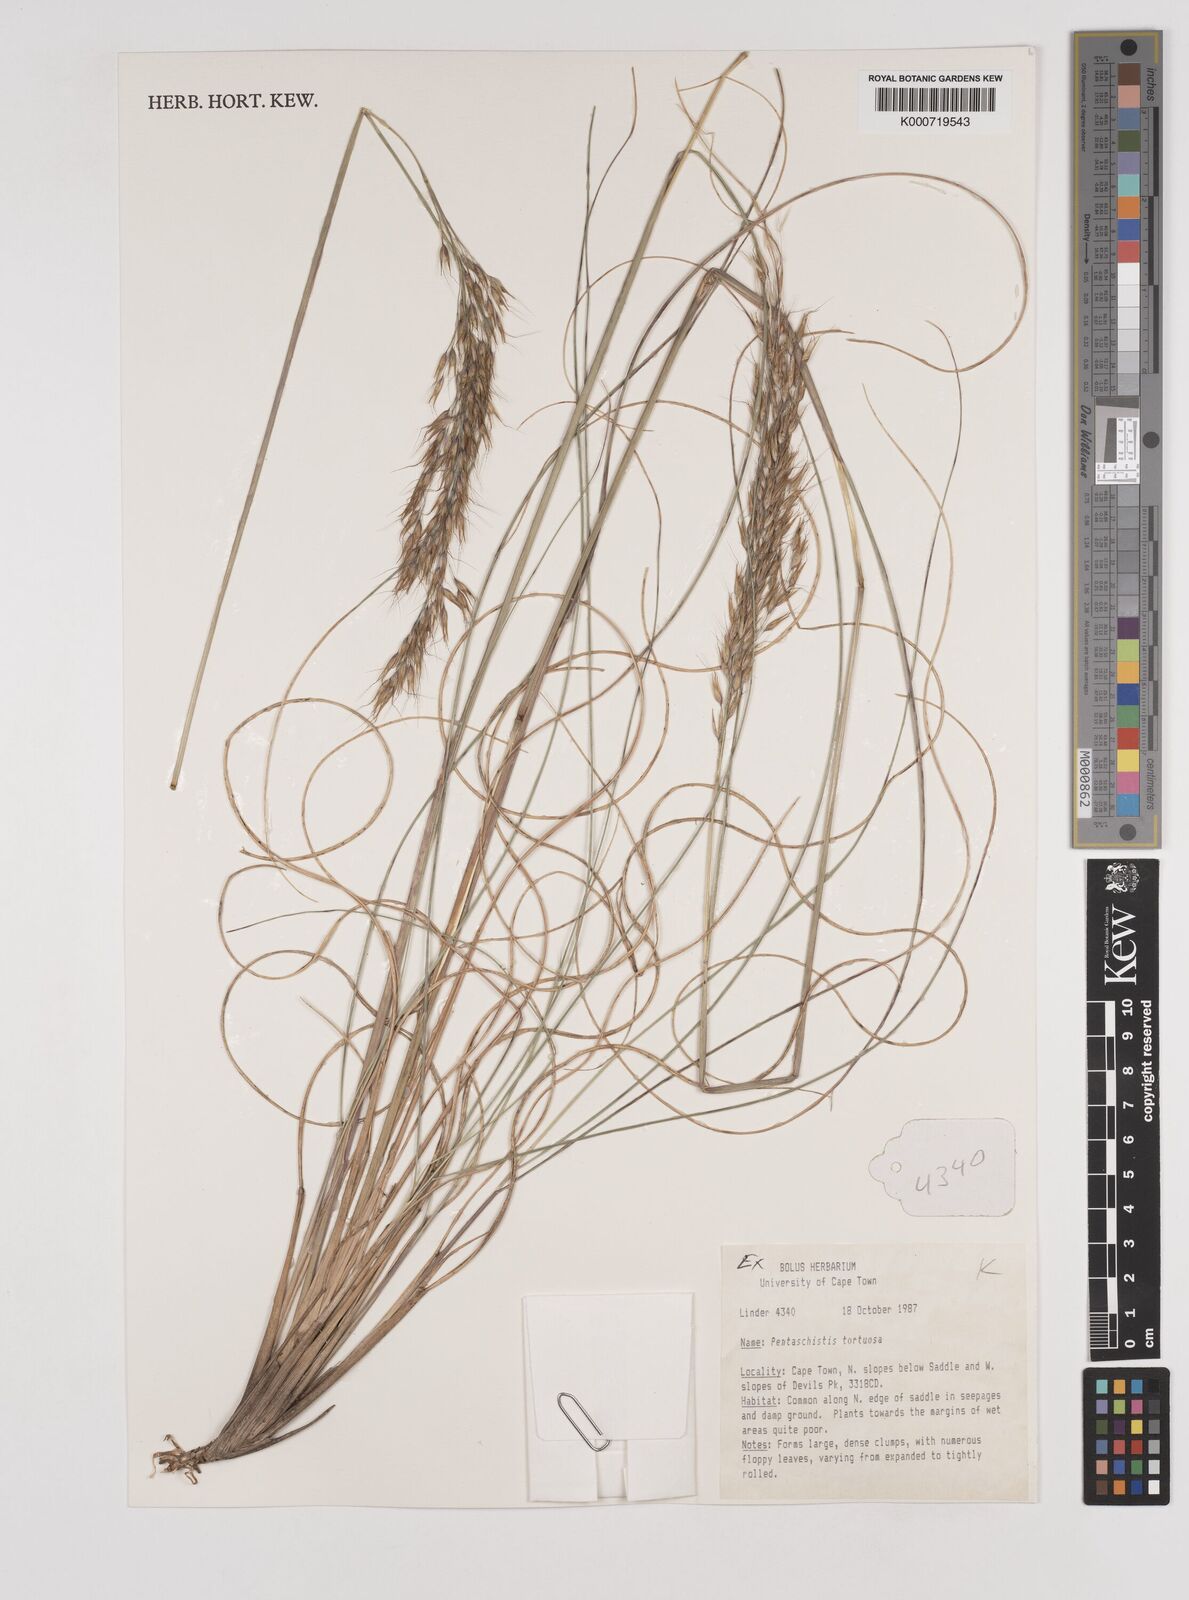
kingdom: Plantae
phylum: Tracheophyta
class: Liliopsida
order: Poales
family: Poaceae
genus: Pentameris
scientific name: Pentameris tortuosa
